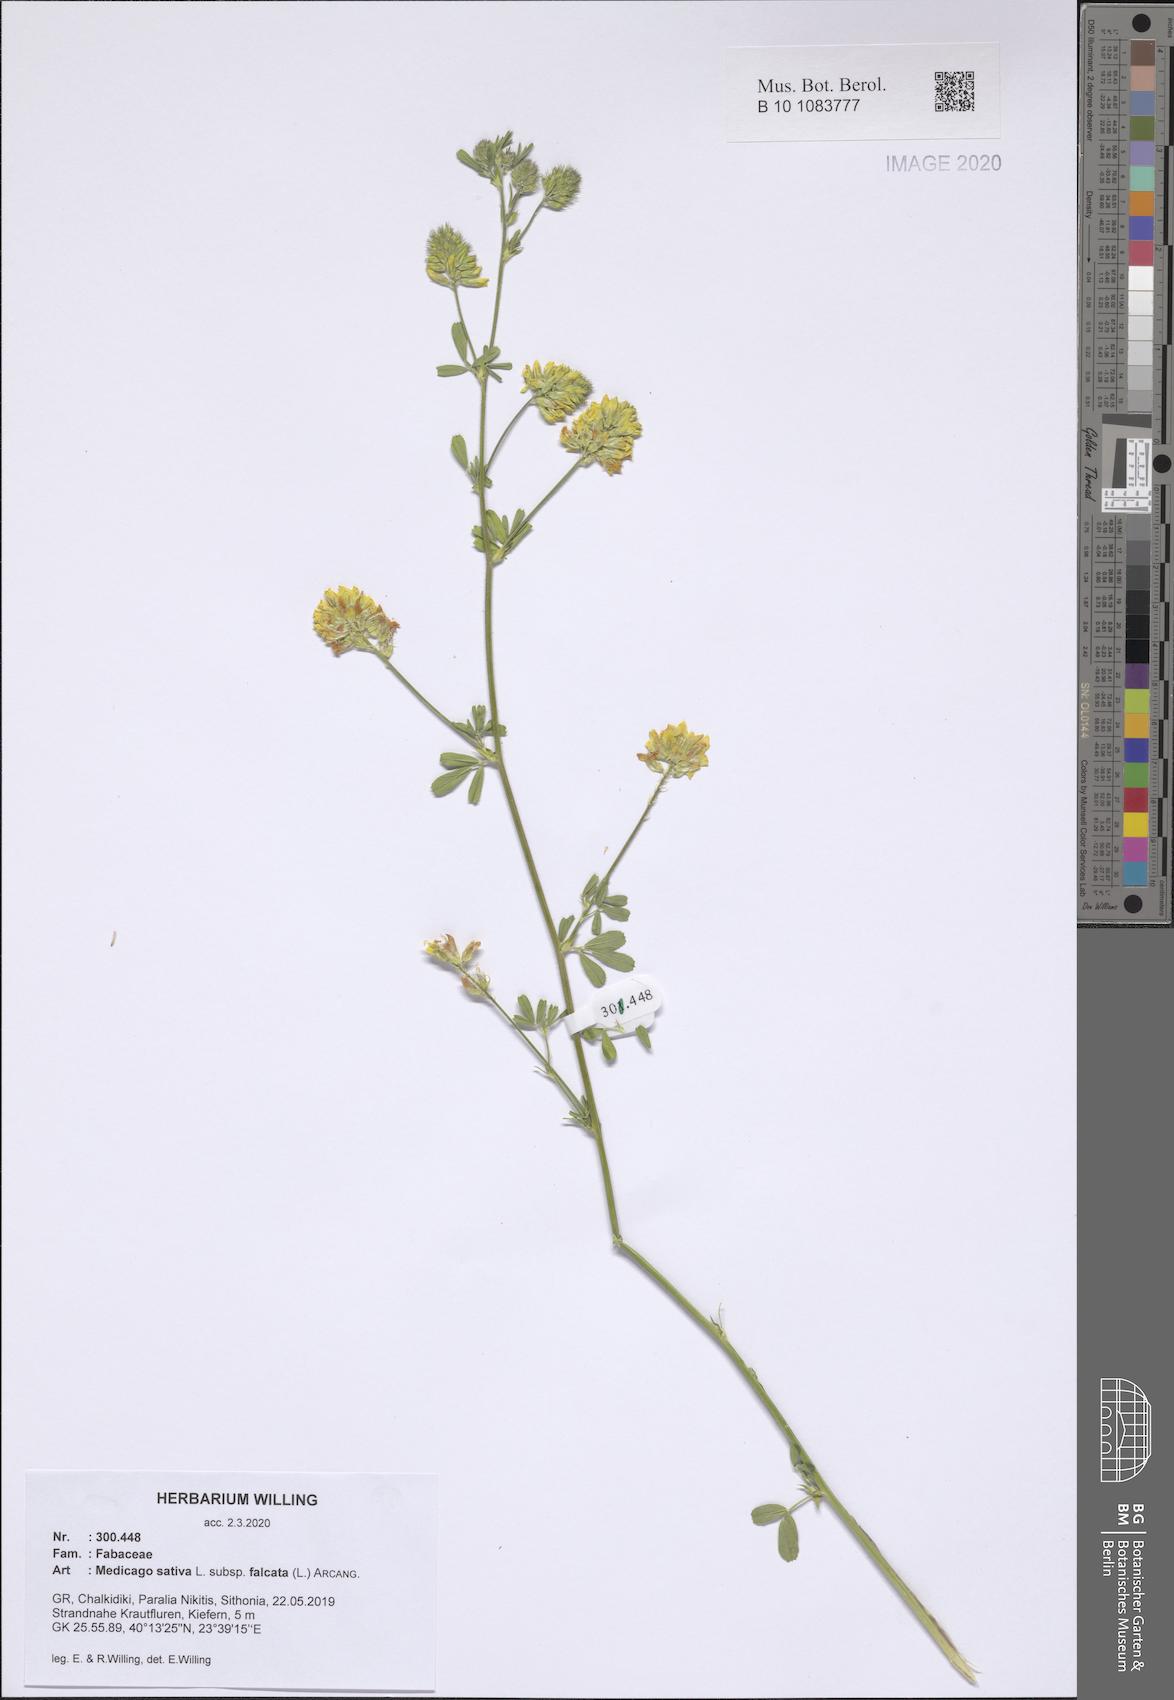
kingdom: Plantae
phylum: Tracheophyta
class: Magnoliopsida
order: Fabales
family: Fabaceae
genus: Medicago
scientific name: Medicago falcata
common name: Sickle medick
